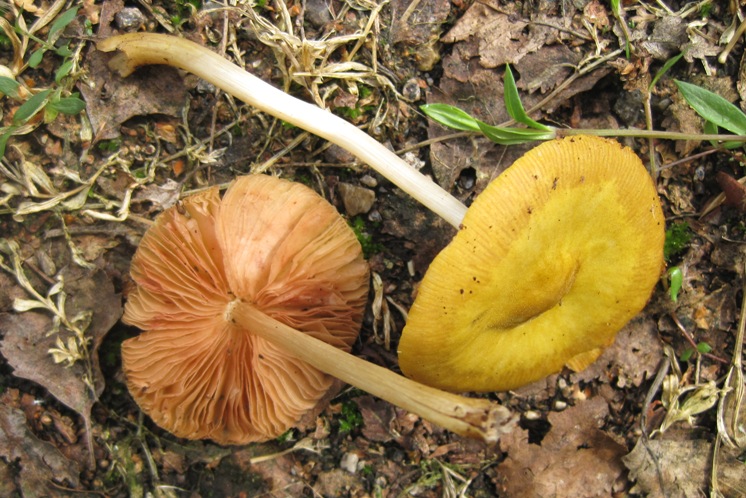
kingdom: Fungi
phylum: Basidiomycota
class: Agaricomycetes
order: Agaricales
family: Pluteaceae
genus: Pluteus
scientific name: Pluteus leoninus
